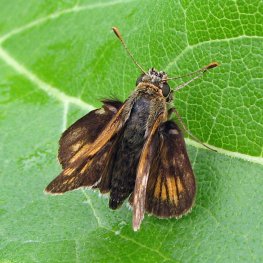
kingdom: Animalia
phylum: Arthropoda
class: Insecta
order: Lepidoptera
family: Hesperiidae
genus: Polites
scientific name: Polites coras
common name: Peck's Skipper
